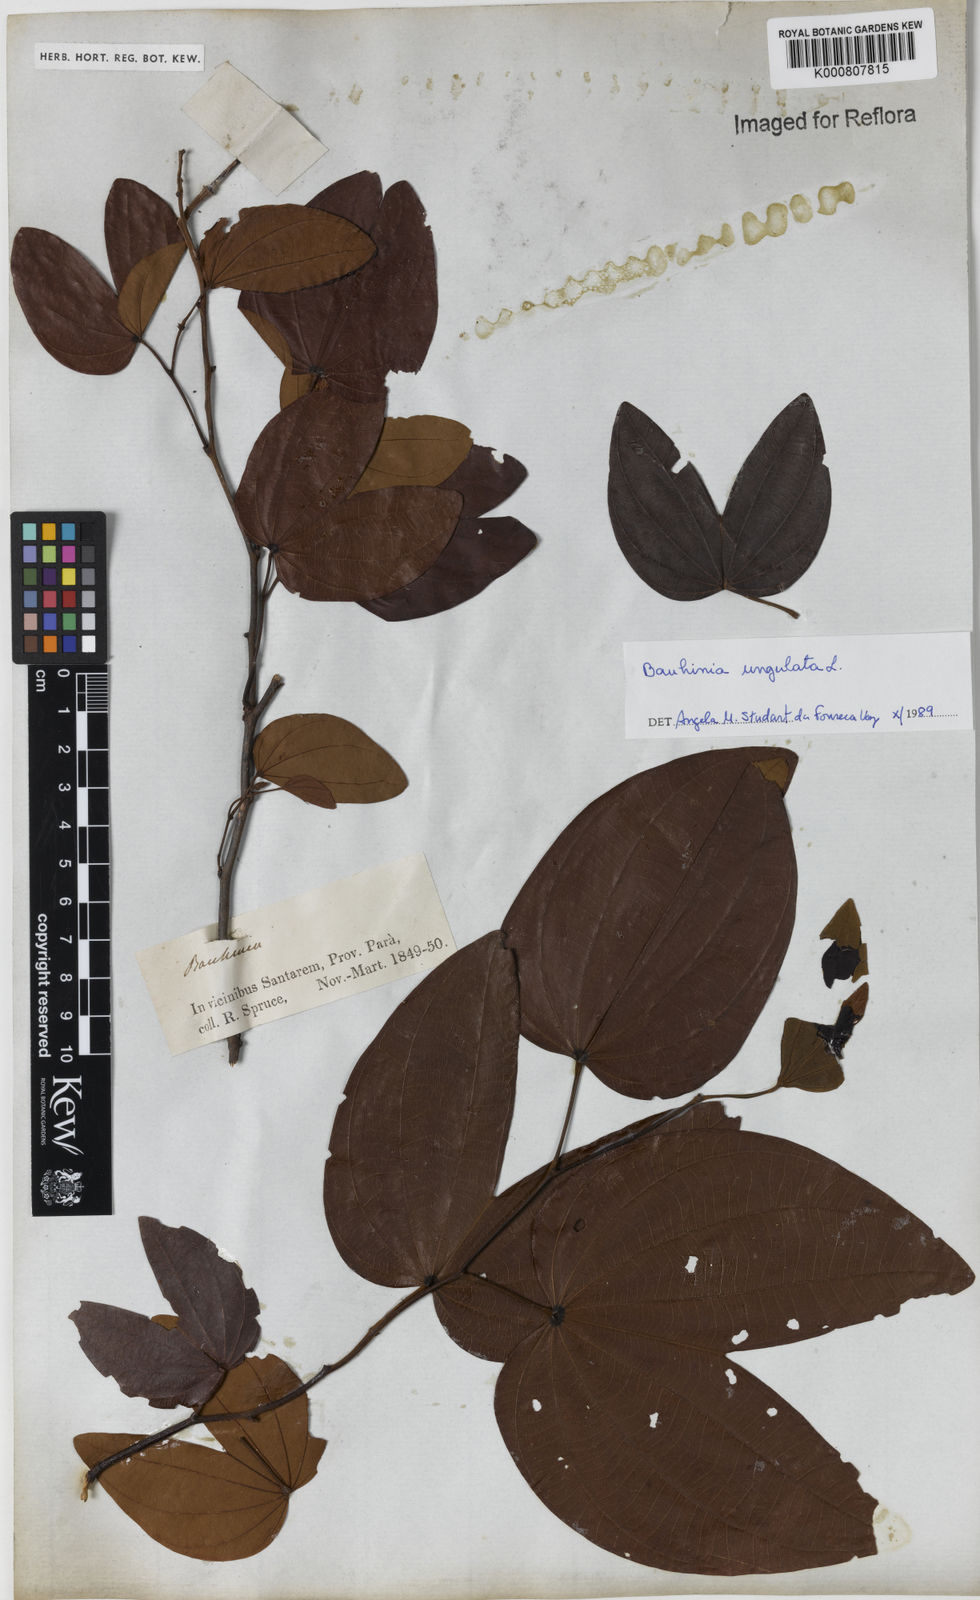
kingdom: Plantae
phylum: Tracheophyta
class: Magnoliopsida
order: Fabales
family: Fabaceae
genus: Bauhinia
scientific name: Bauhinia ungulata
